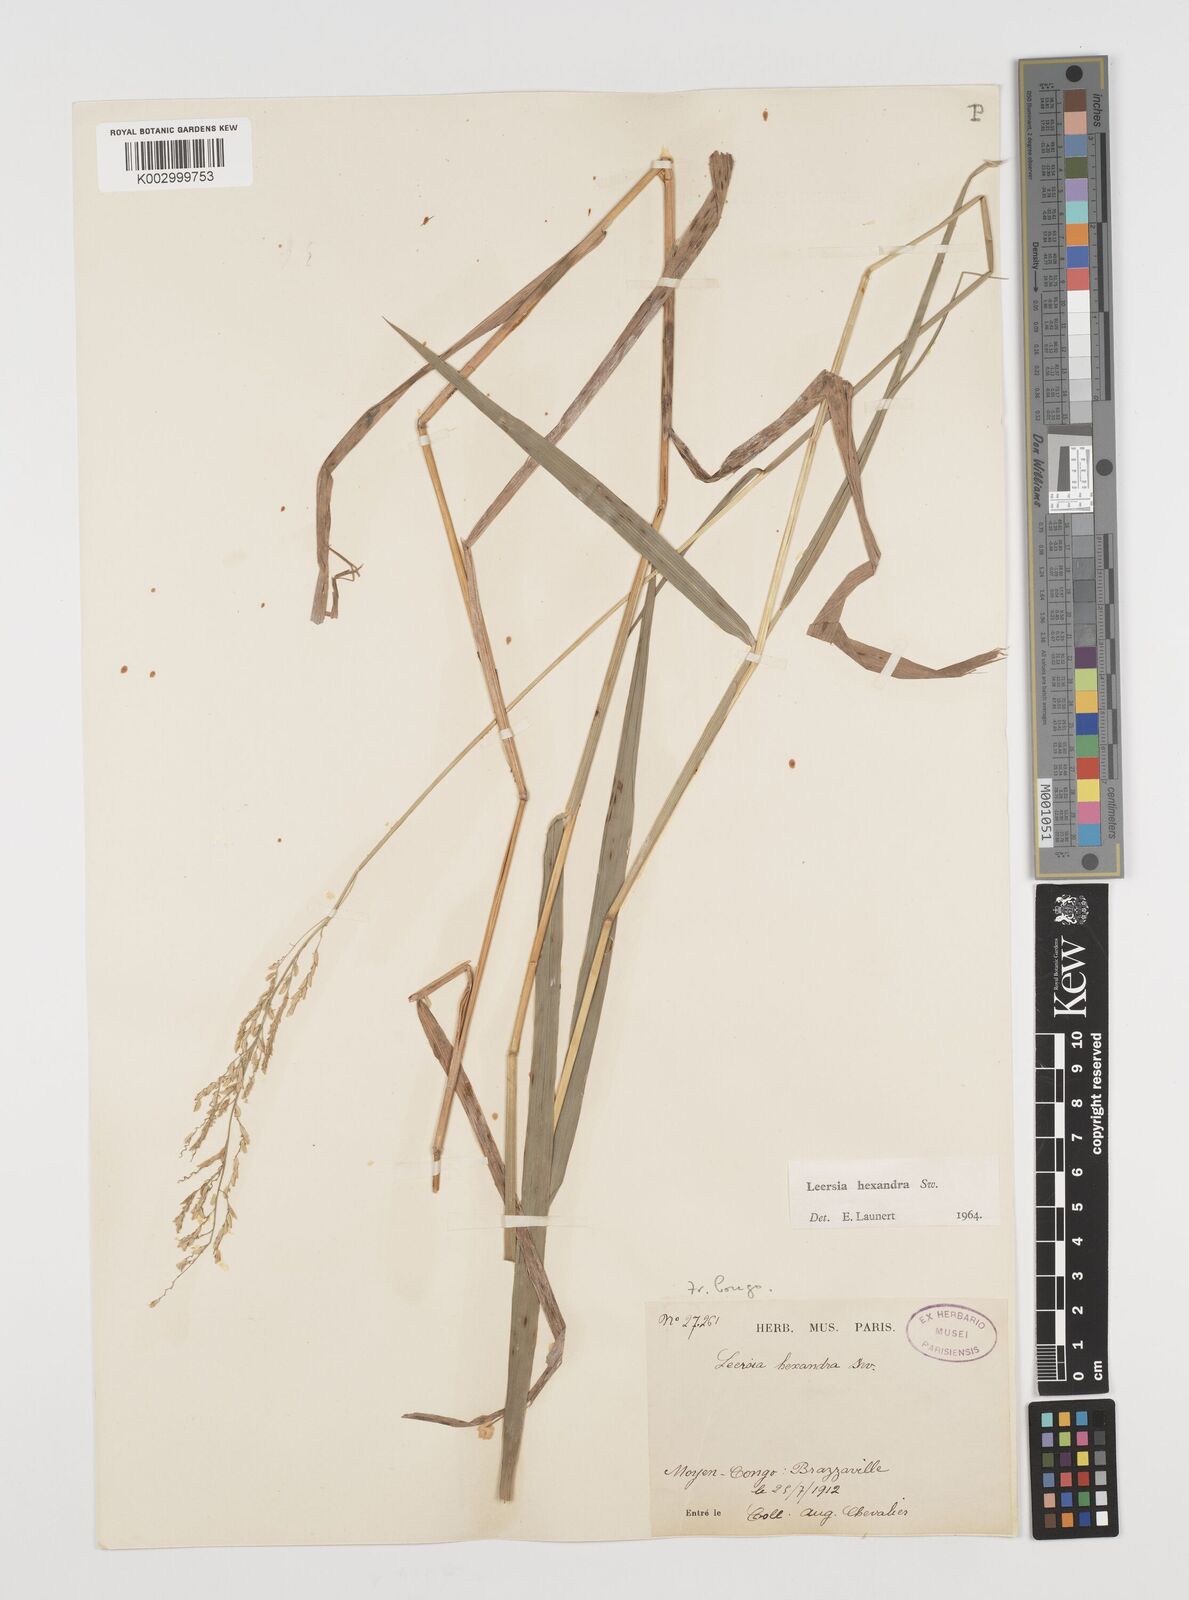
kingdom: Plantae
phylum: Tracheophyta
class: Liliopsida
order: Poales
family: Poaceae
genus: Leersia
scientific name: Leersia hexandra
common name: Southern cut grass
